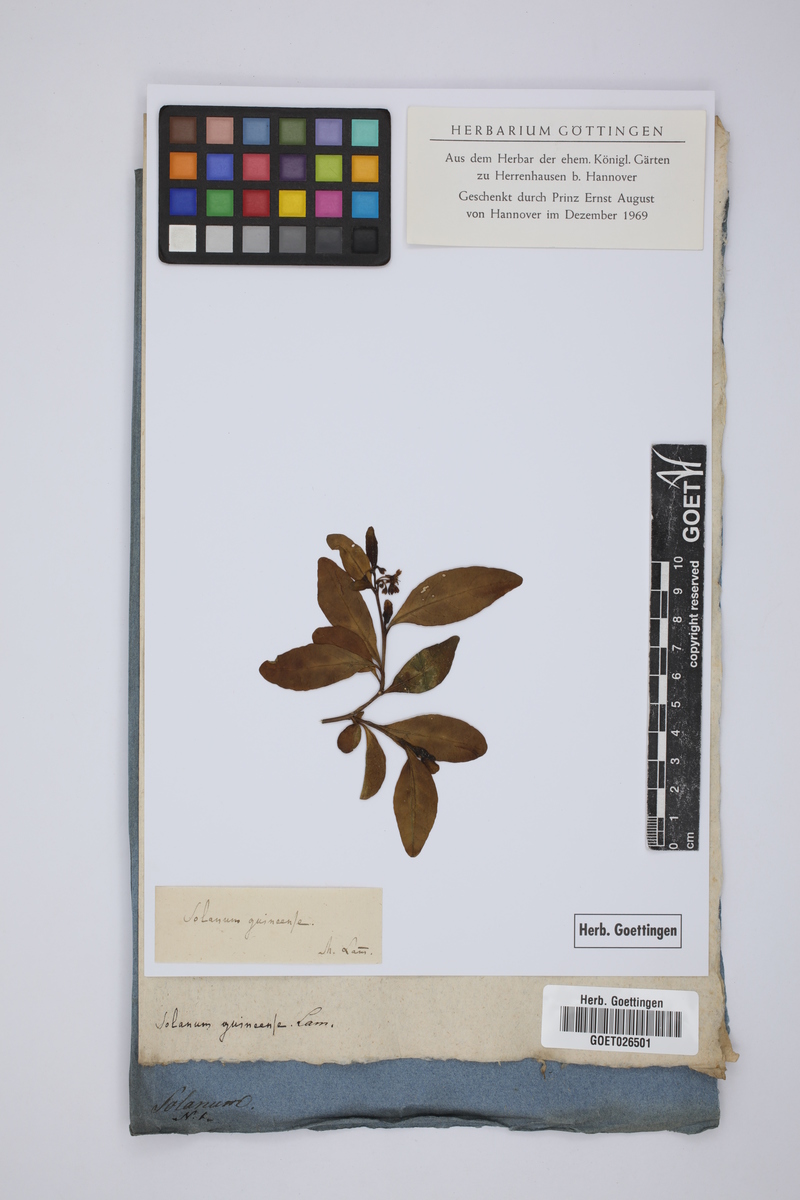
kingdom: Plantae
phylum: Tracheophyta
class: Magnoliopsida
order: Solanales
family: Solanaceae
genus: Solanum
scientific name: Solanum scabrum
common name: Garden-huckleberry
